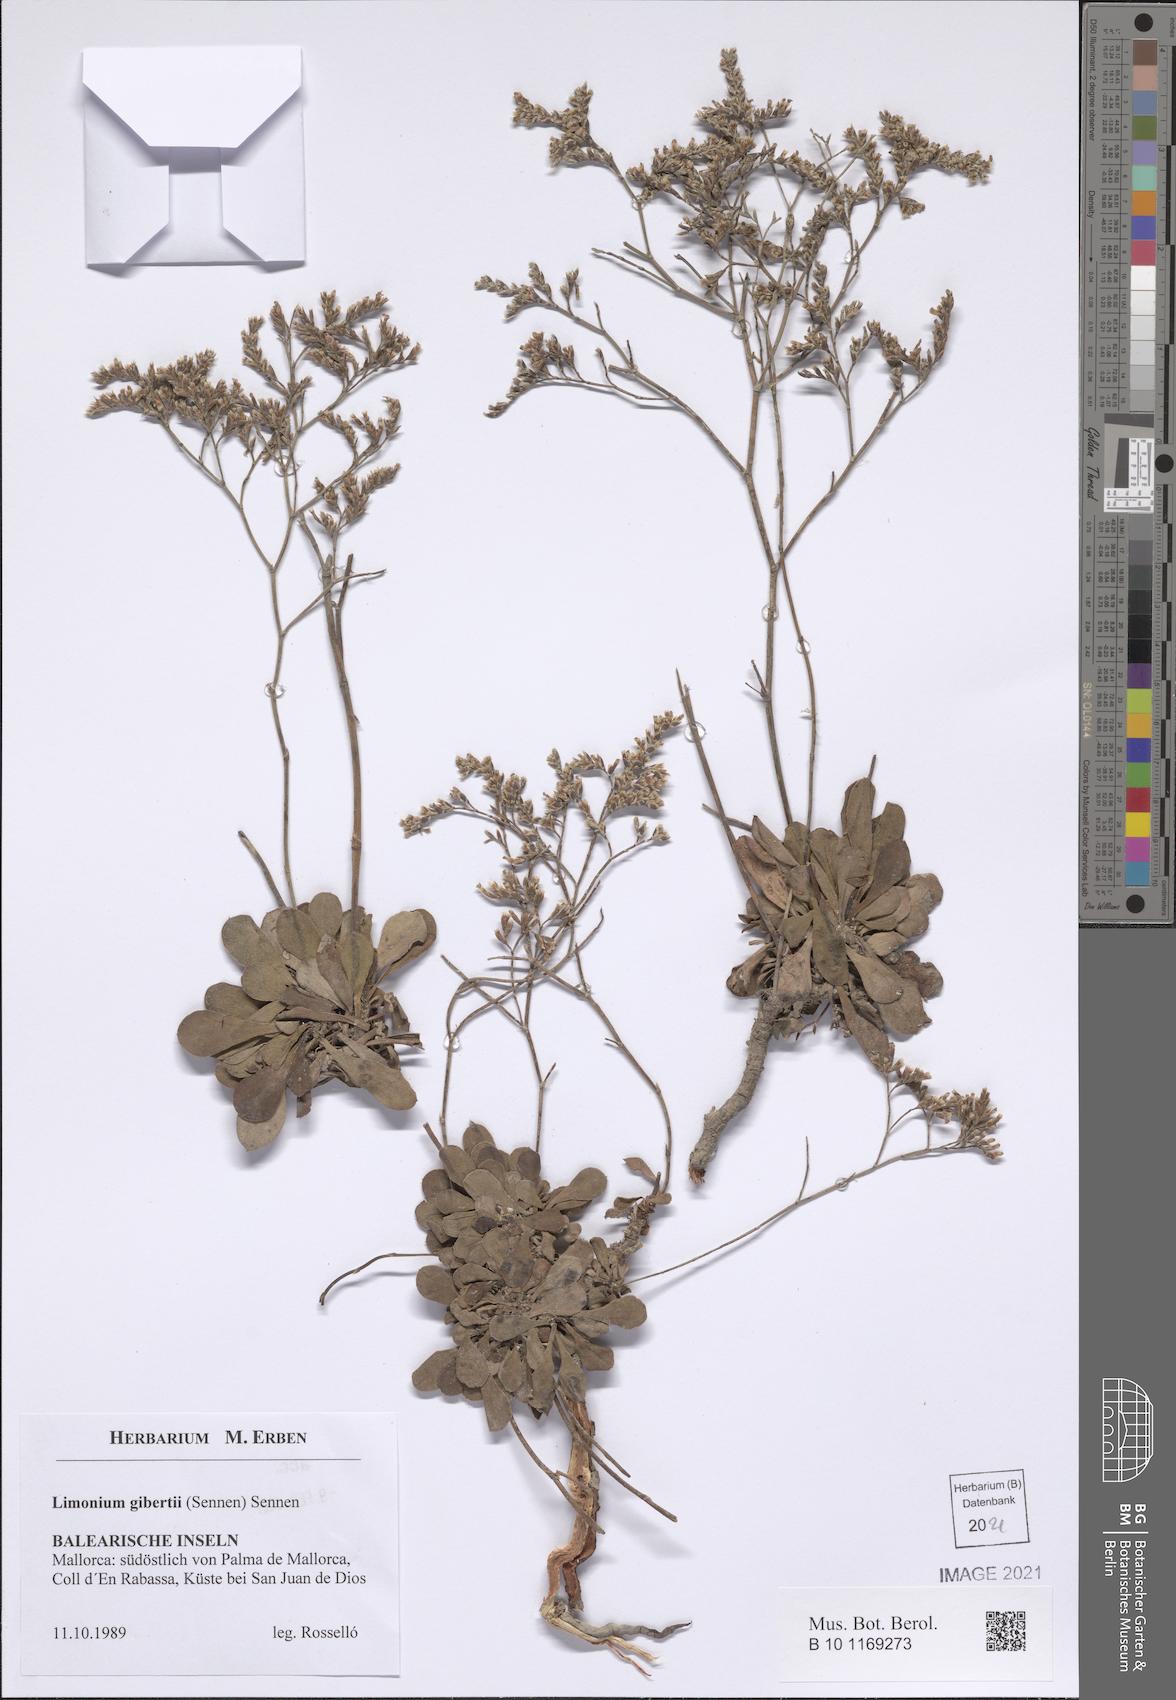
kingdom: Plantae
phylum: Tracheophyta
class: Magnoliopsida
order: Caryophyllales
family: Plumbaginaceae
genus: Limonium
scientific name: Limonium gibertii
